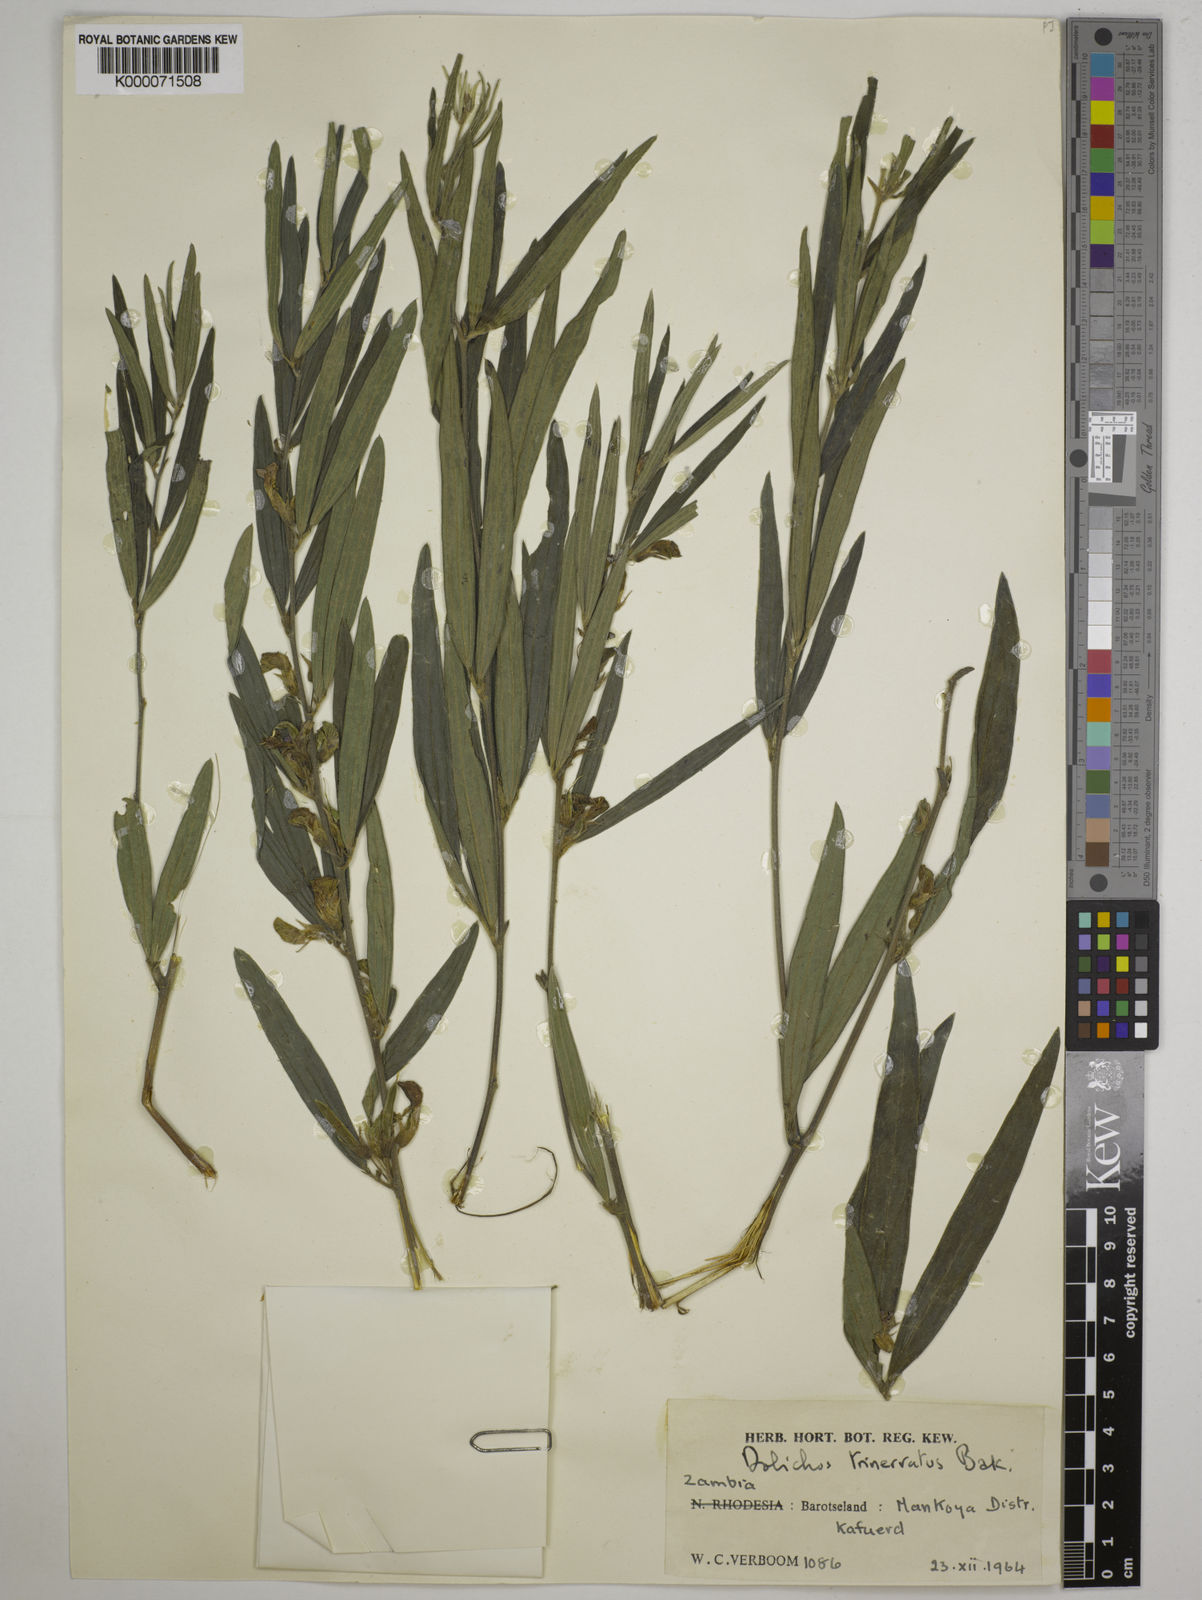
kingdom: Plantae
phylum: Tracheophyta
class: Magnoliopsida
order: Fabales
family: Fabaceae
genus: Dolichos
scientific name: Dolichos trinervatus
